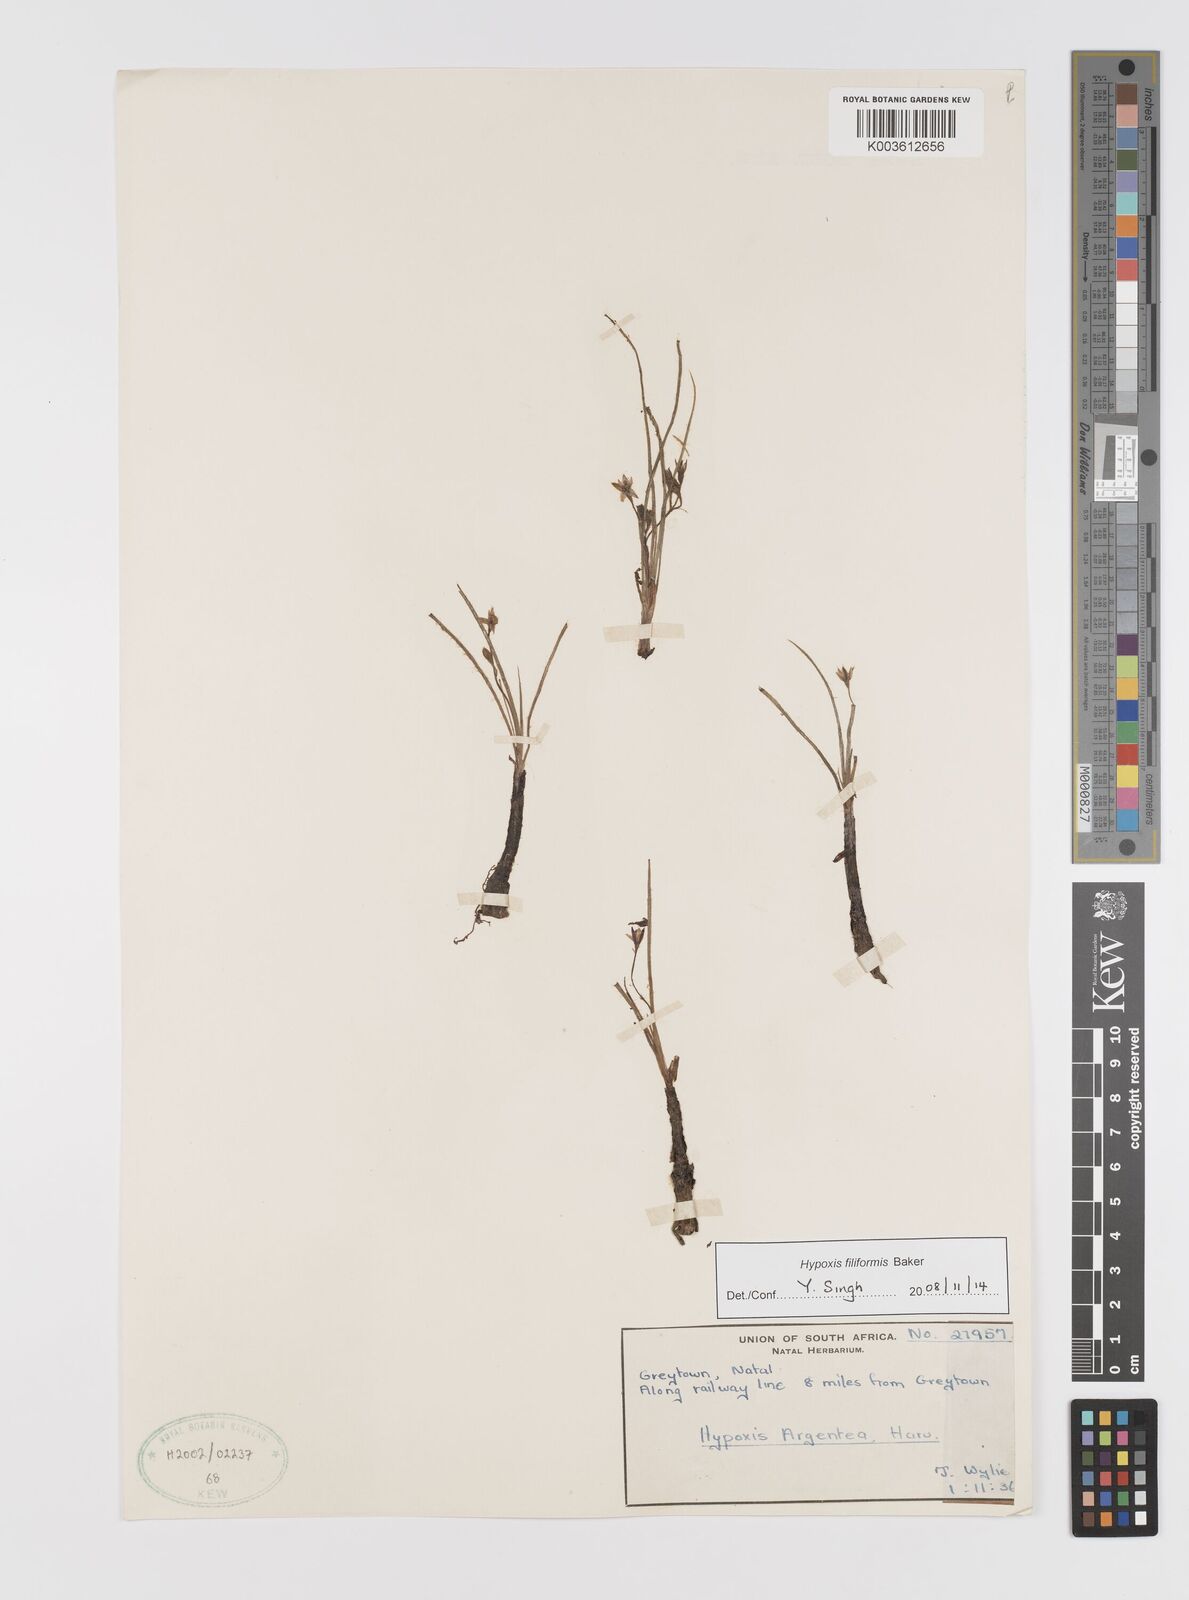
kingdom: Plantae
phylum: Tracheophyta
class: Liliopsida
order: Asparagales
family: Hypoxidaceae
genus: Hypoxis
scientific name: Hypoxis filiformis
